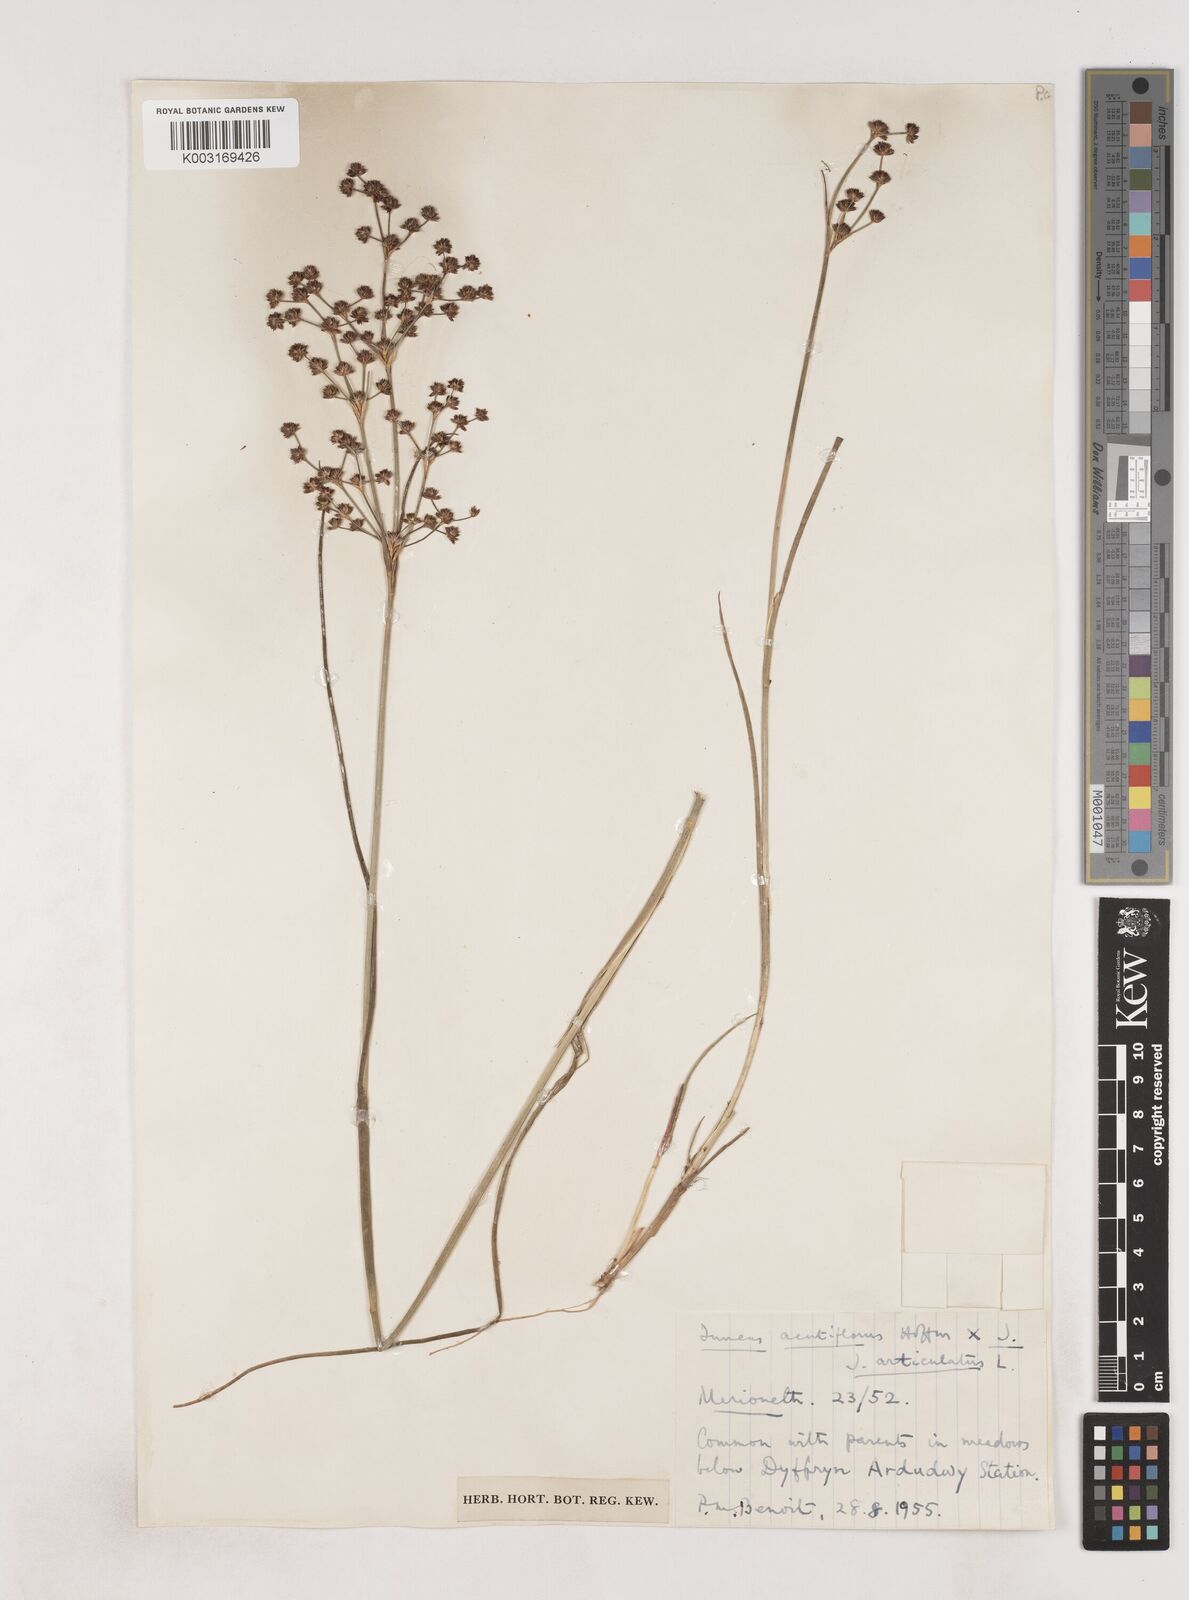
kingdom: Plantae
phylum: Tracheophyta
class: Liliopsida
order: Poales
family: Juncaceae
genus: Juncus
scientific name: Juncus acutiflorus
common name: Sharp-flowered rush
